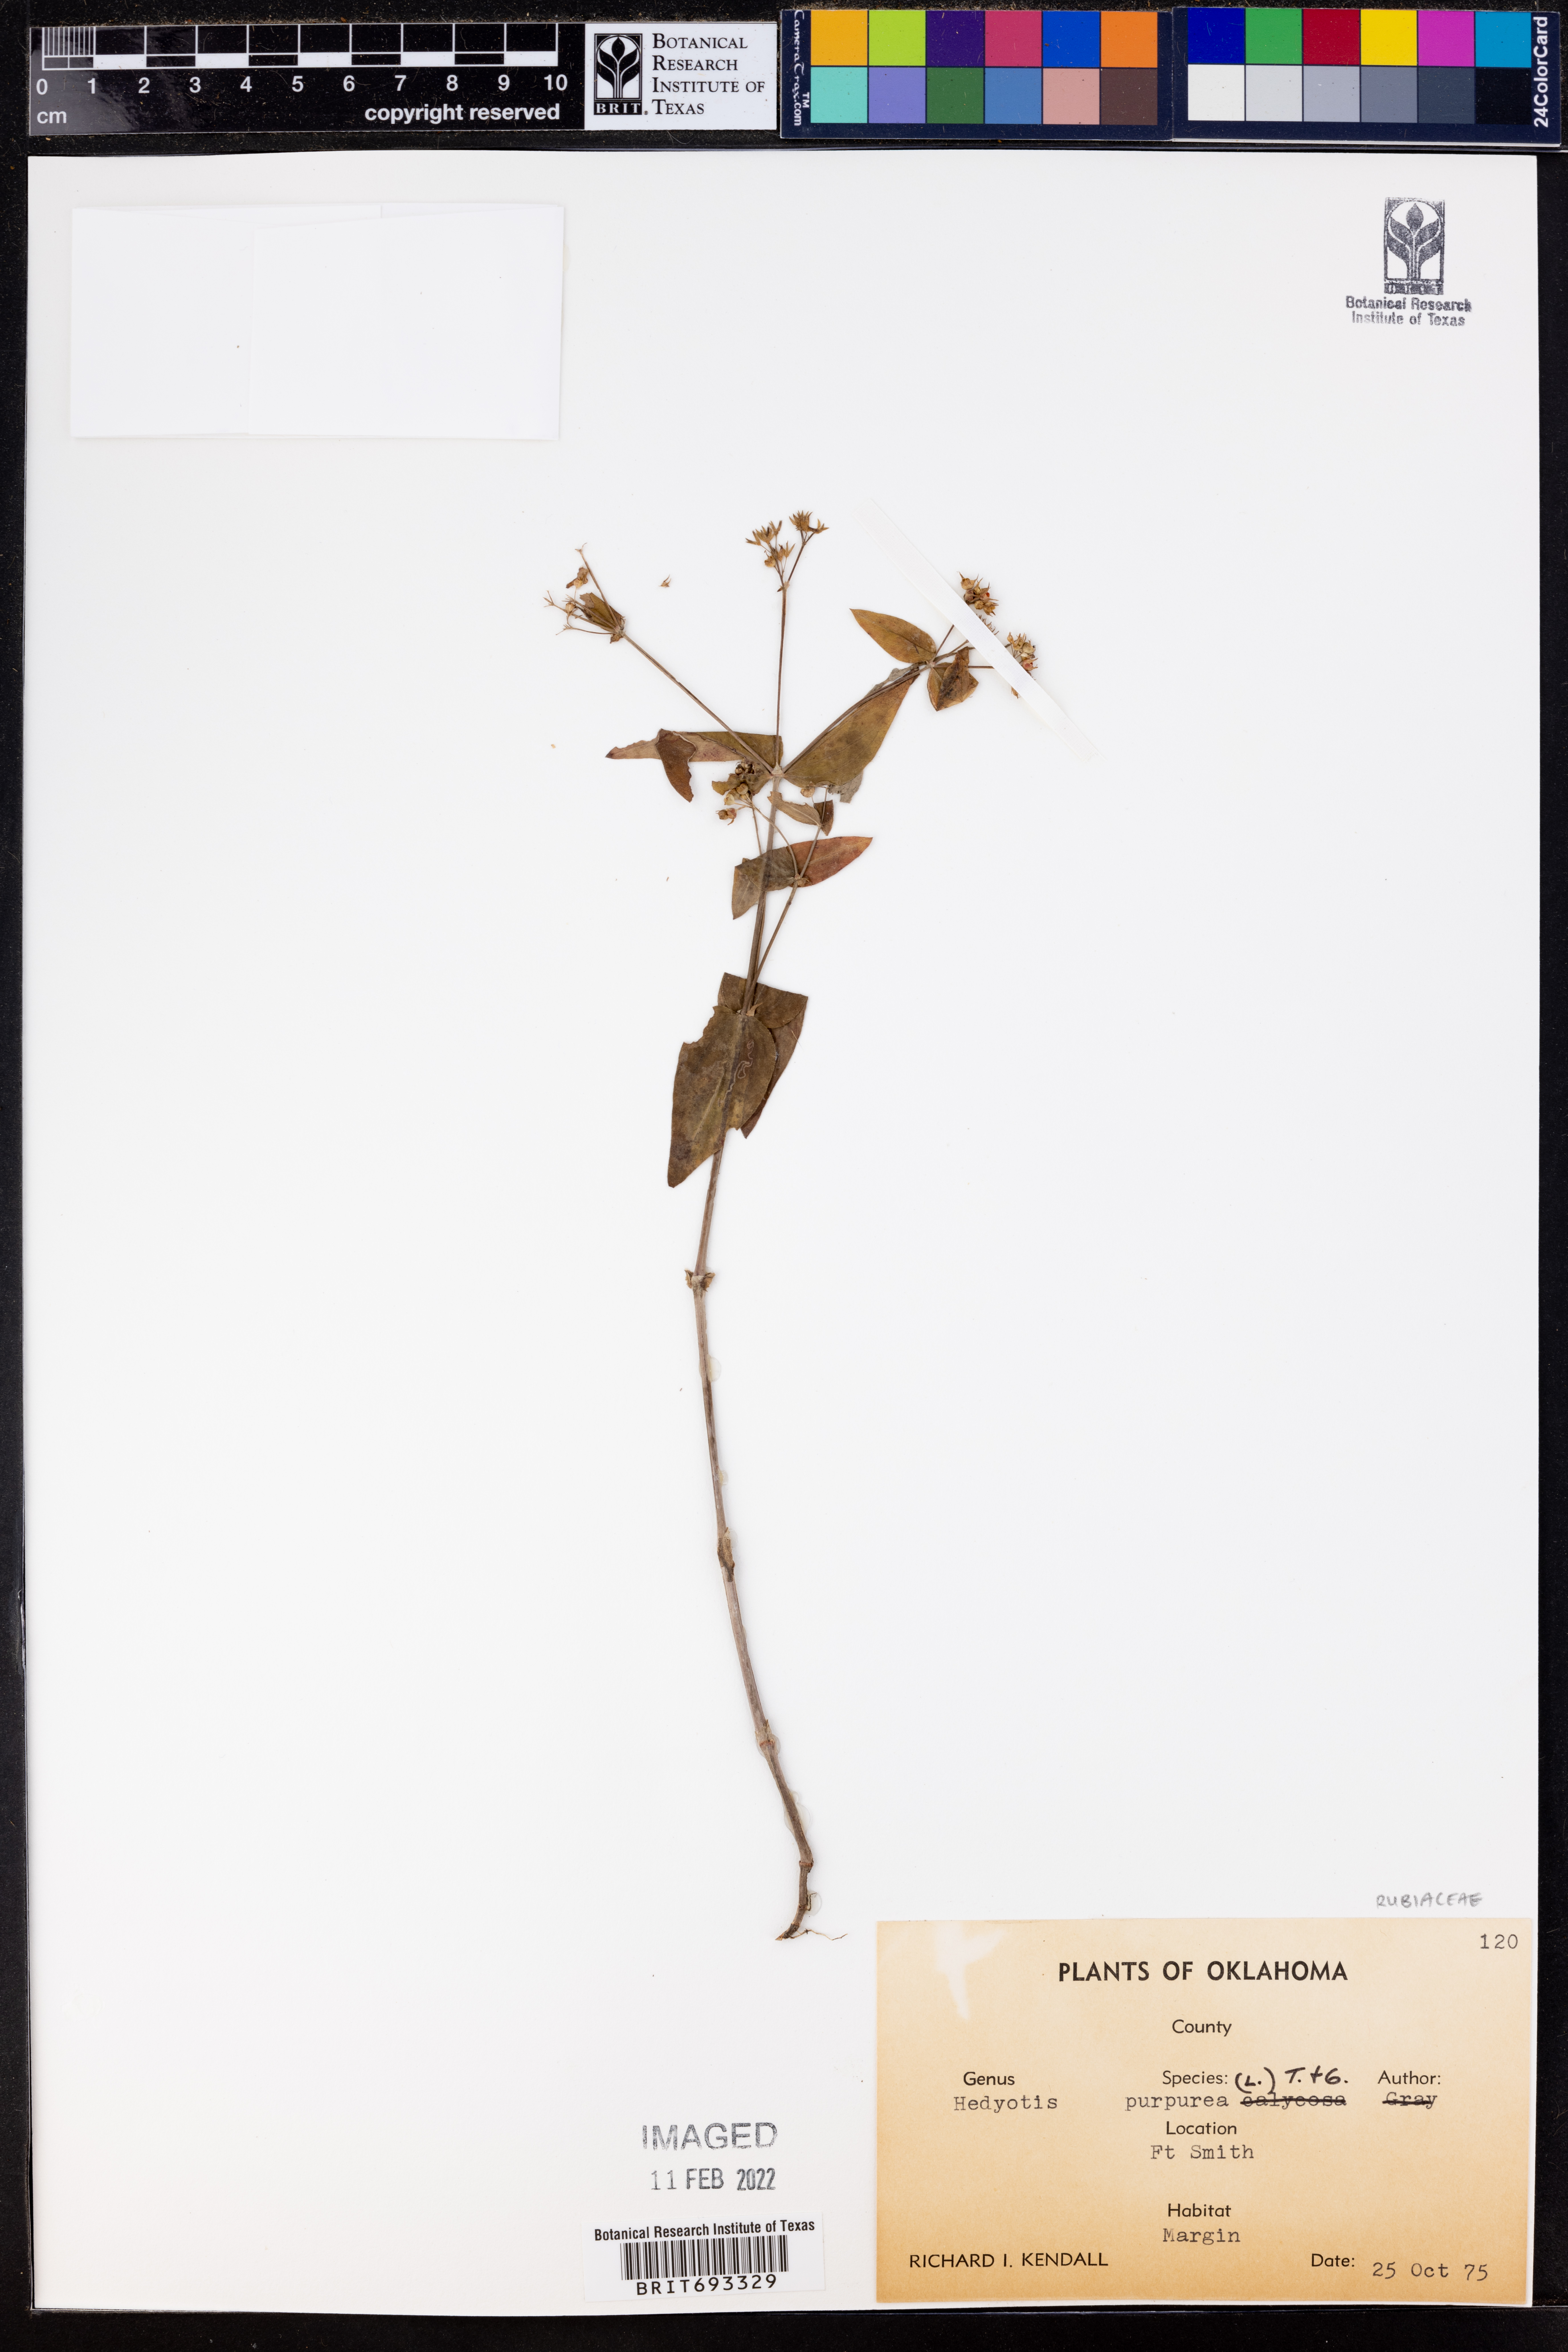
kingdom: Plantae
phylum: Tracheophyta
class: Magnoliopsida
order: Gentianales
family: Rubiaceae
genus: Houstonia
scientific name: Houstonia purpurea
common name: Summer bluet
